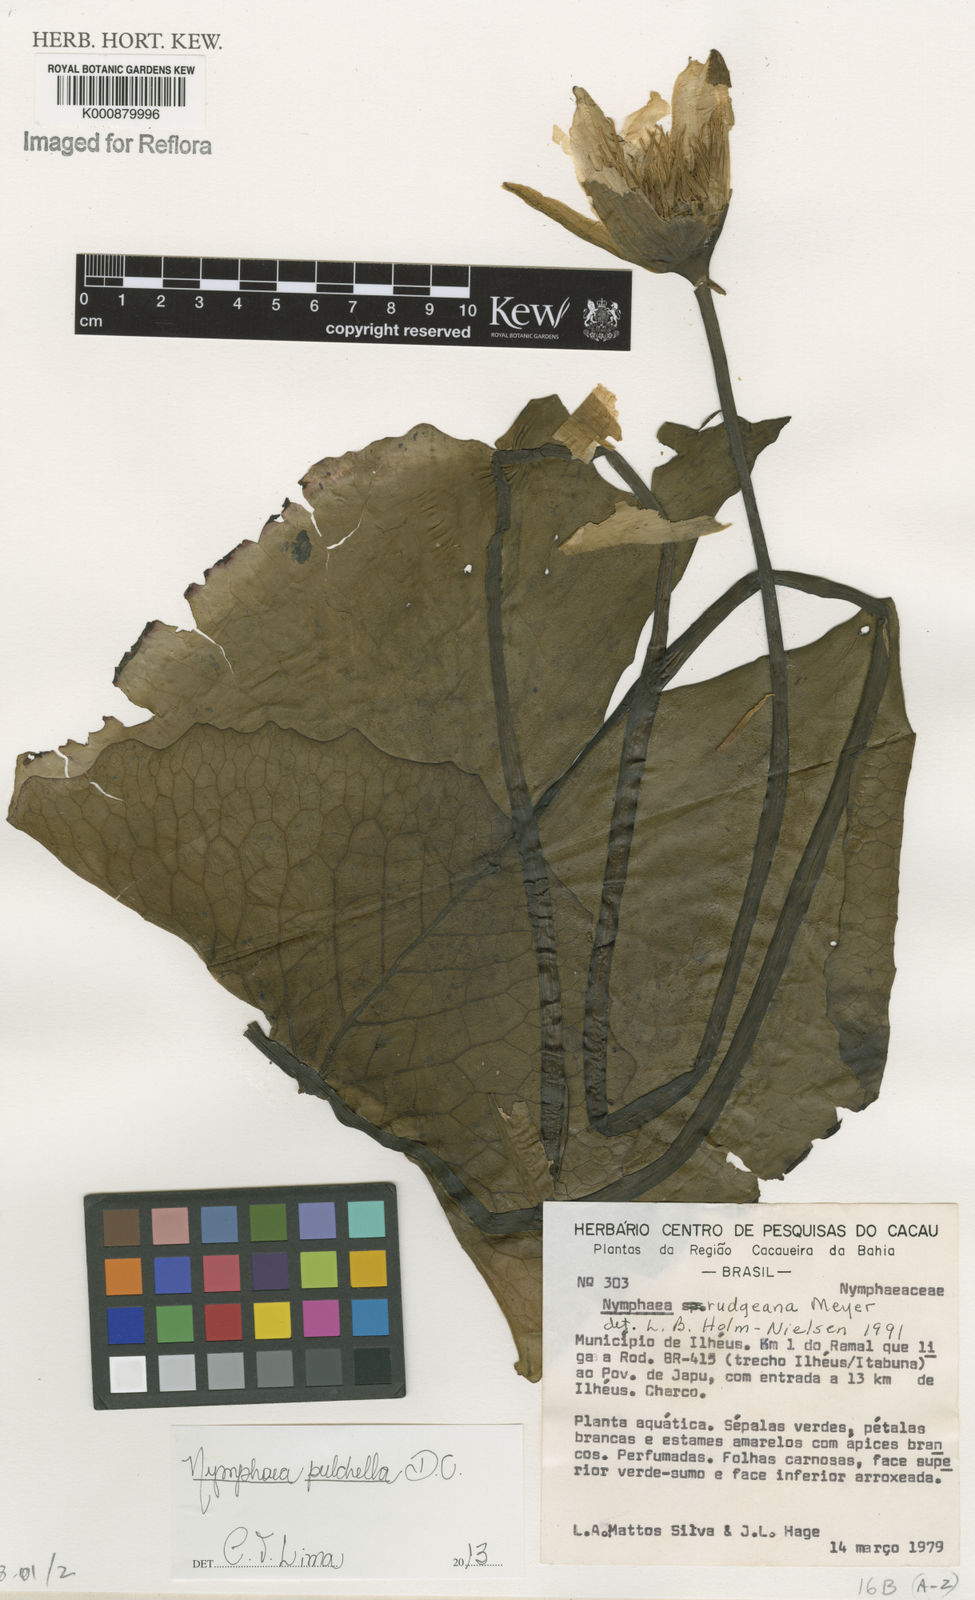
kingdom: Plantae
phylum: Tracheophyta
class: Magnoliopsida
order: Nymphaeales
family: Nymphaeaceae
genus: Nymphaea
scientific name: Nymphaea pulchella
